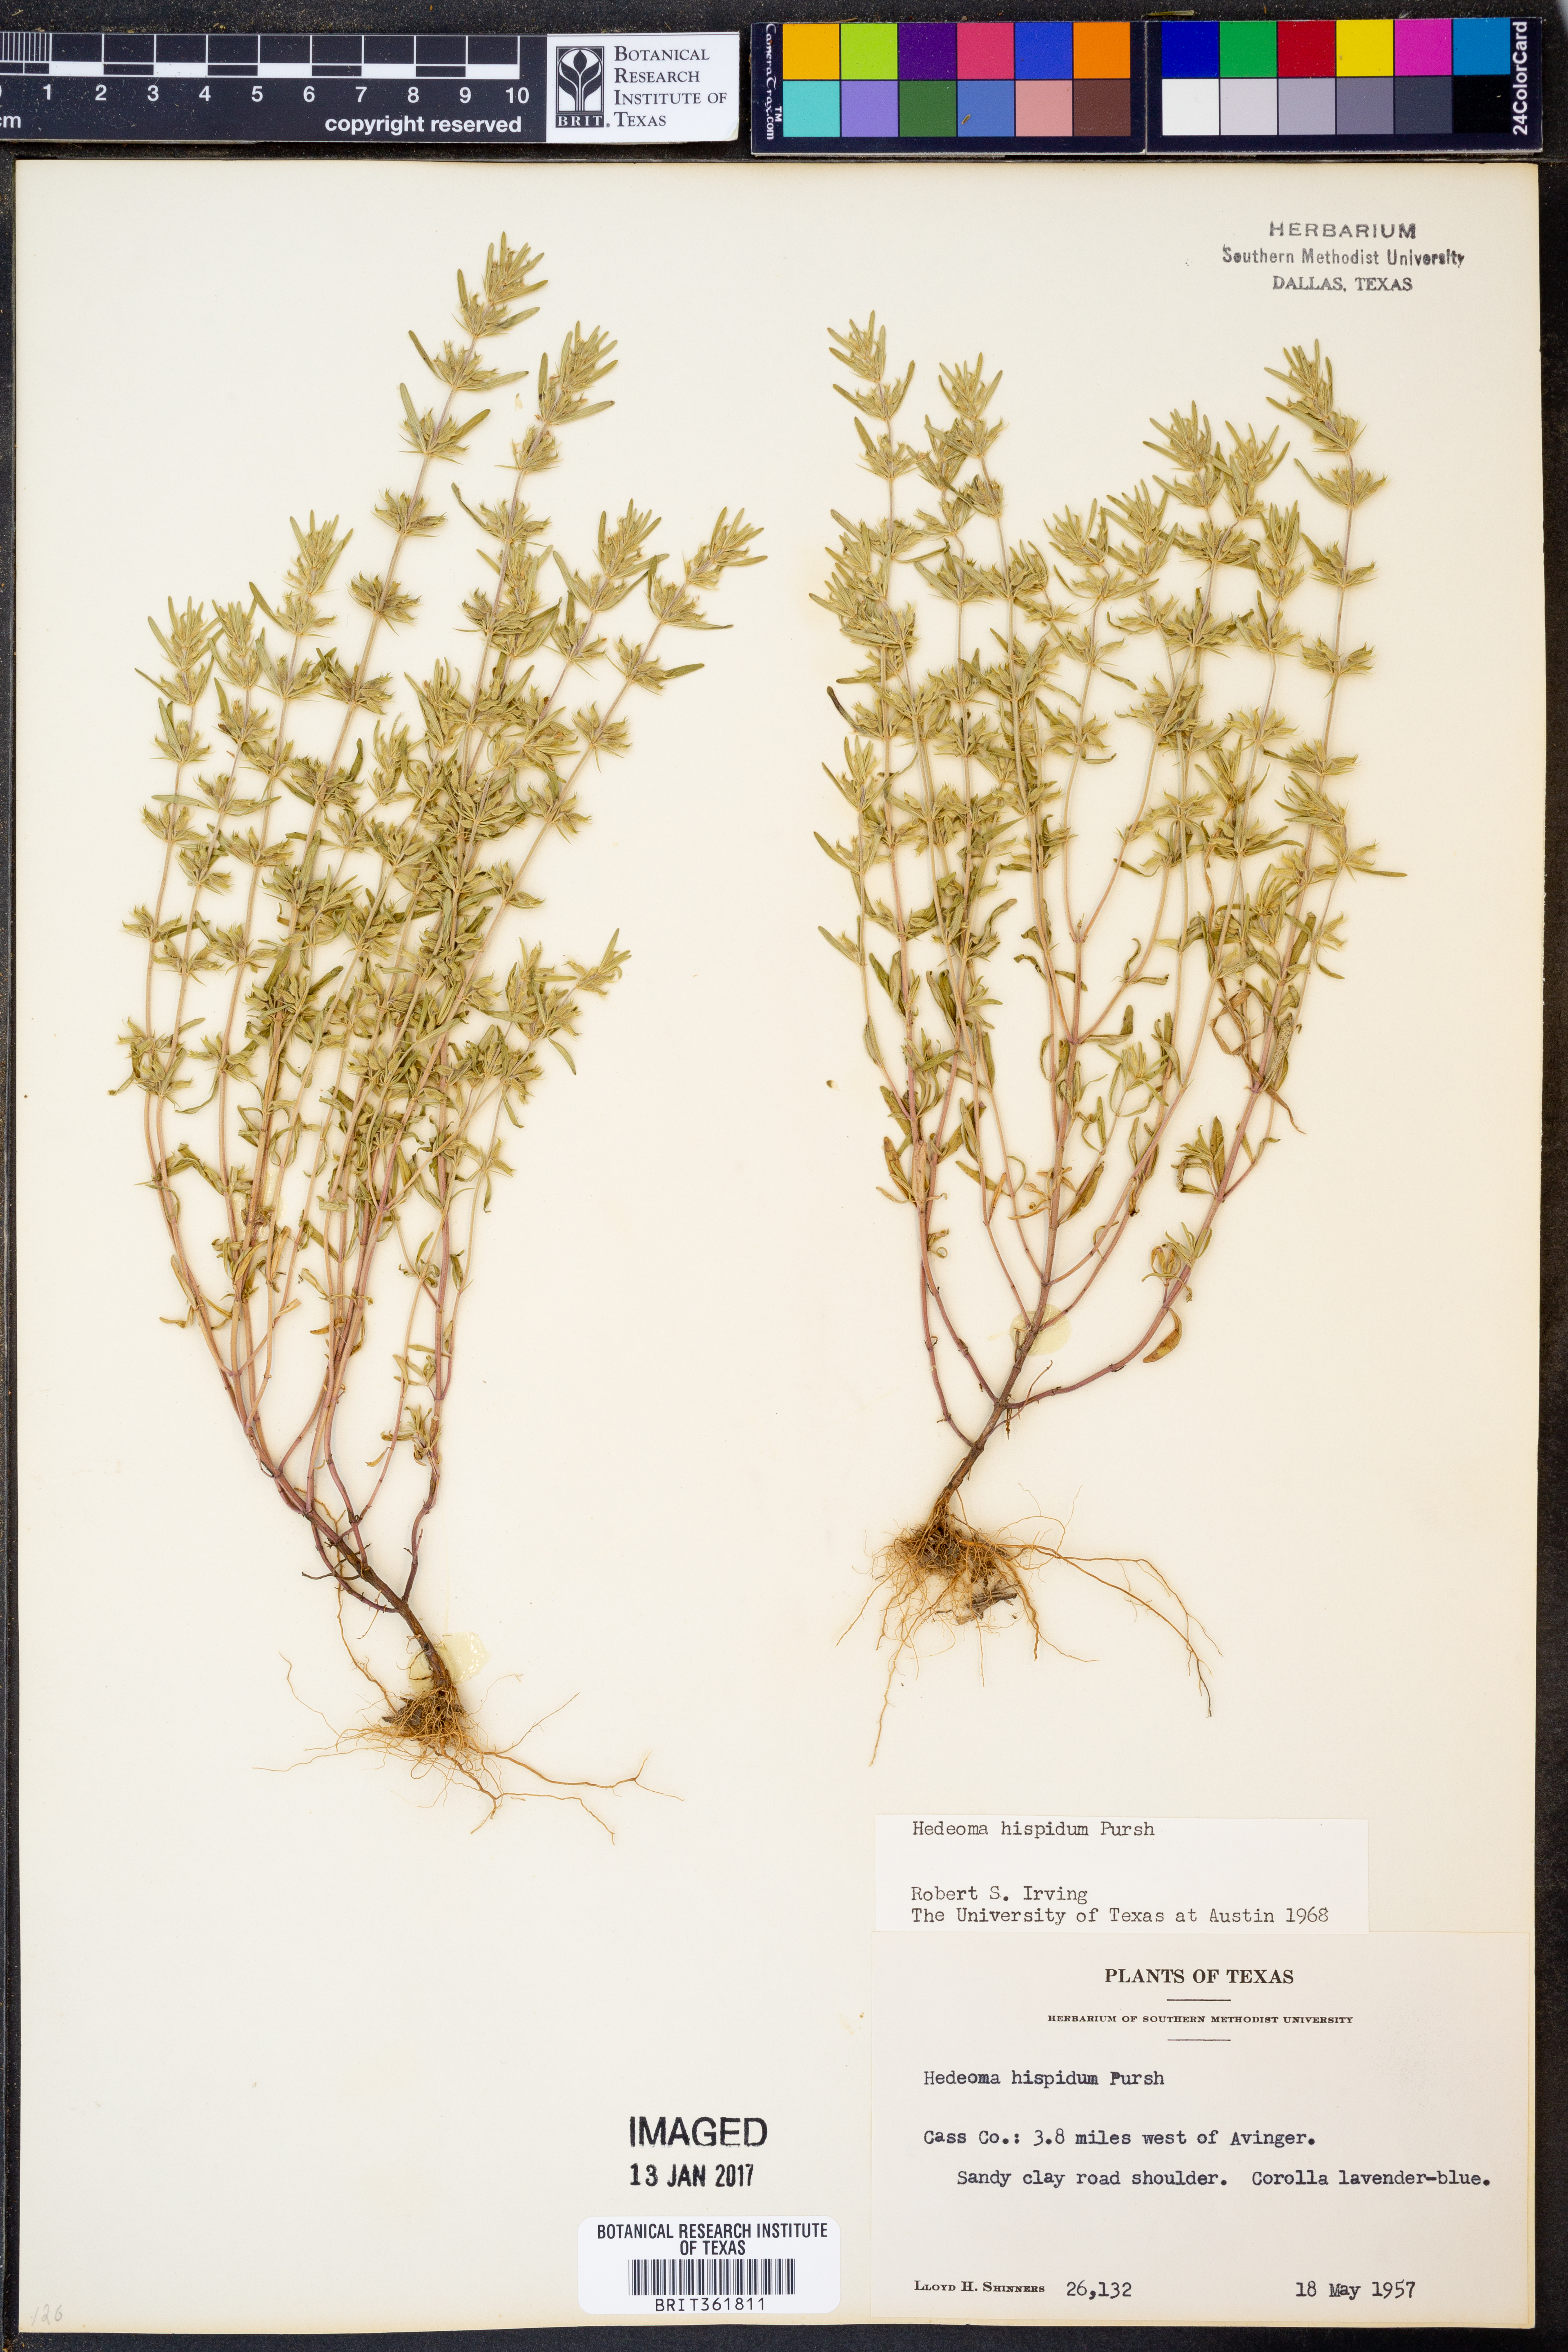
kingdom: Plantae
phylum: Tracheophyta
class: Magnoliopsida
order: Lamiales
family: Lamiaceae
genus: Hedeoma
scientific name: Hedeoma hispida
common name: Mock pennyroyal
